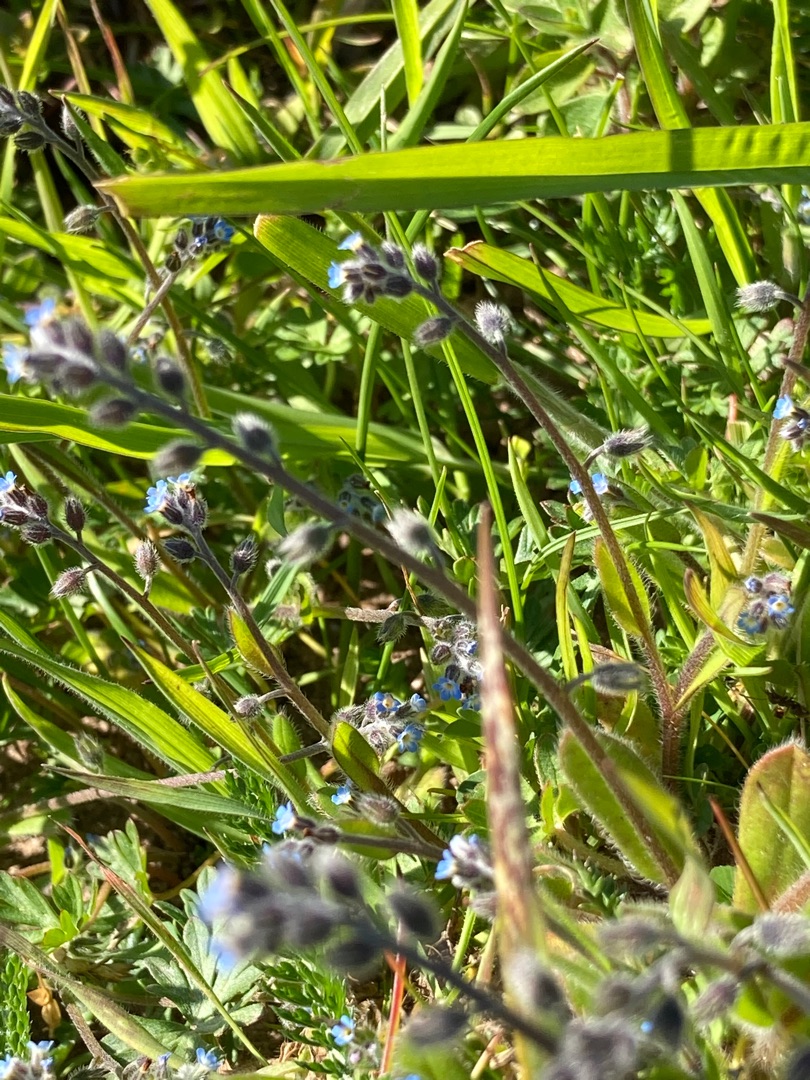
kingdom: Plantae
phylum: Tracheophyta
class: Magnoliopsida
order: Boraginales
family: Boraginaceae
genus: Myosotis
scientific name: Myosotis ramosissima
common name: Bakke-forglemmigej
